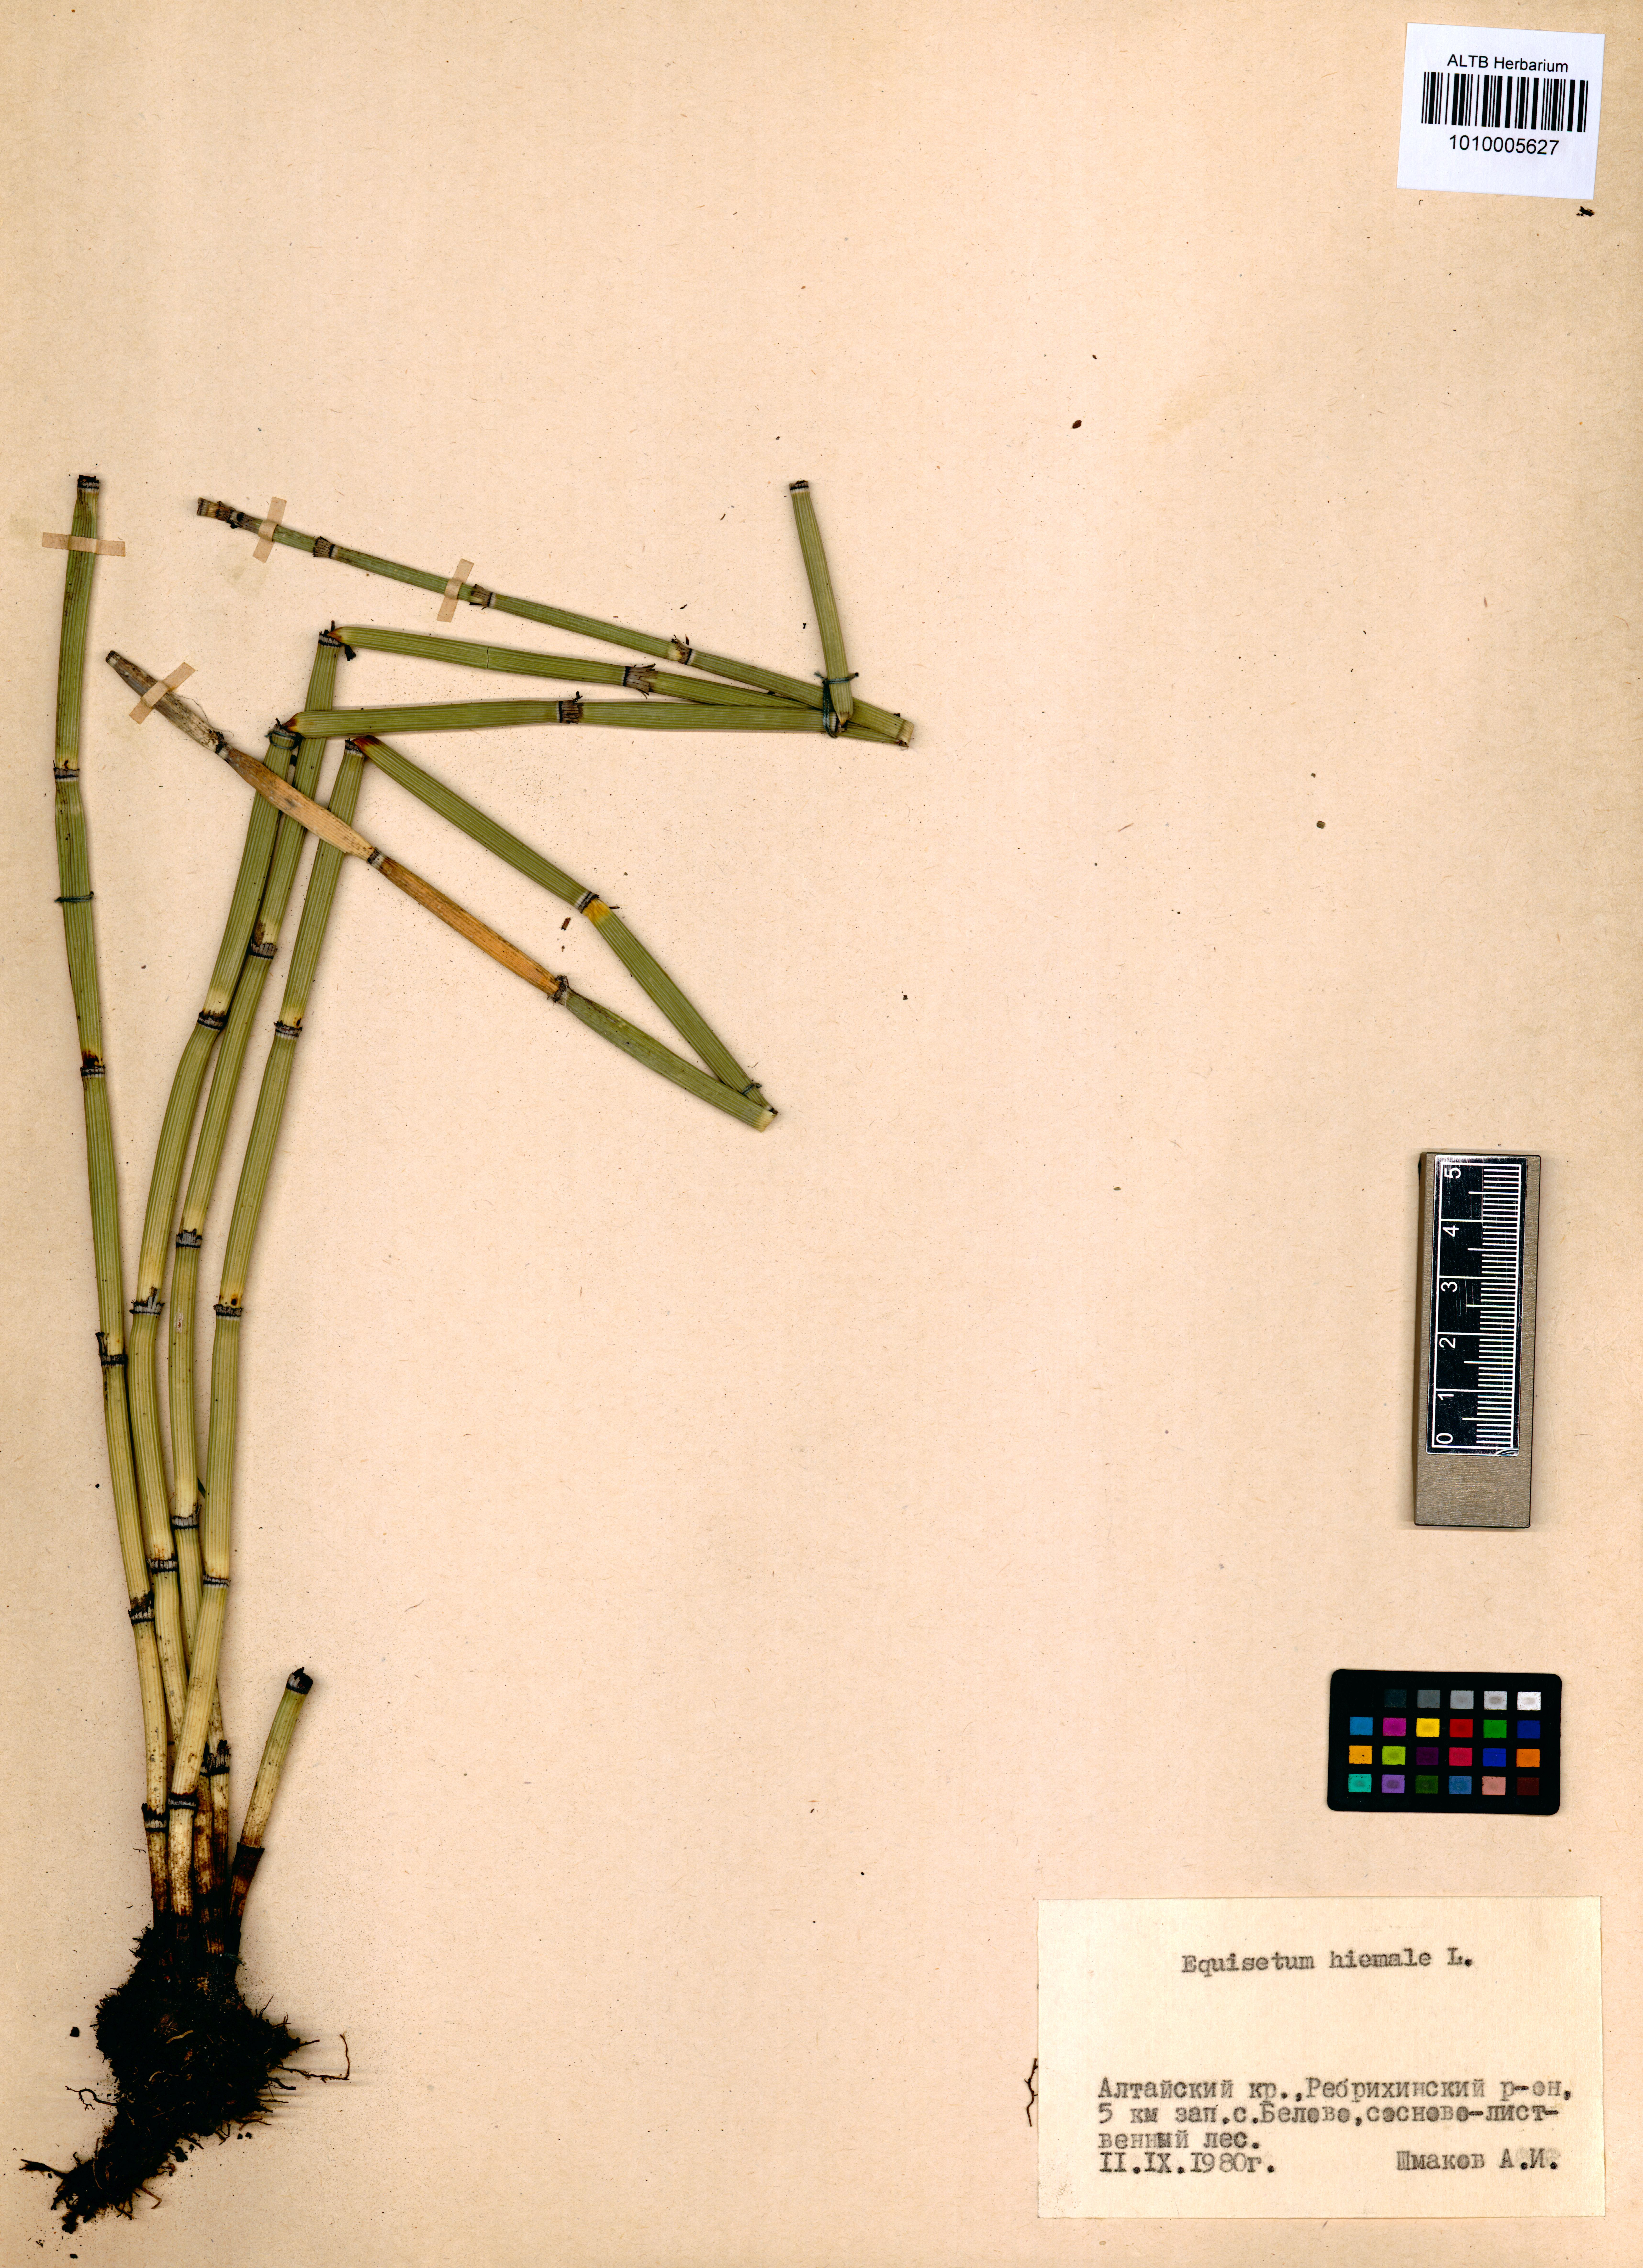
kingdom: Plantae
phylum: Tracheophyta
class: Polypodiopsida
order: Equisetales
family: Equisetaceae
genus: Equisetum
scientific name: Equisetum hyemale
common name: Rough horsetail
